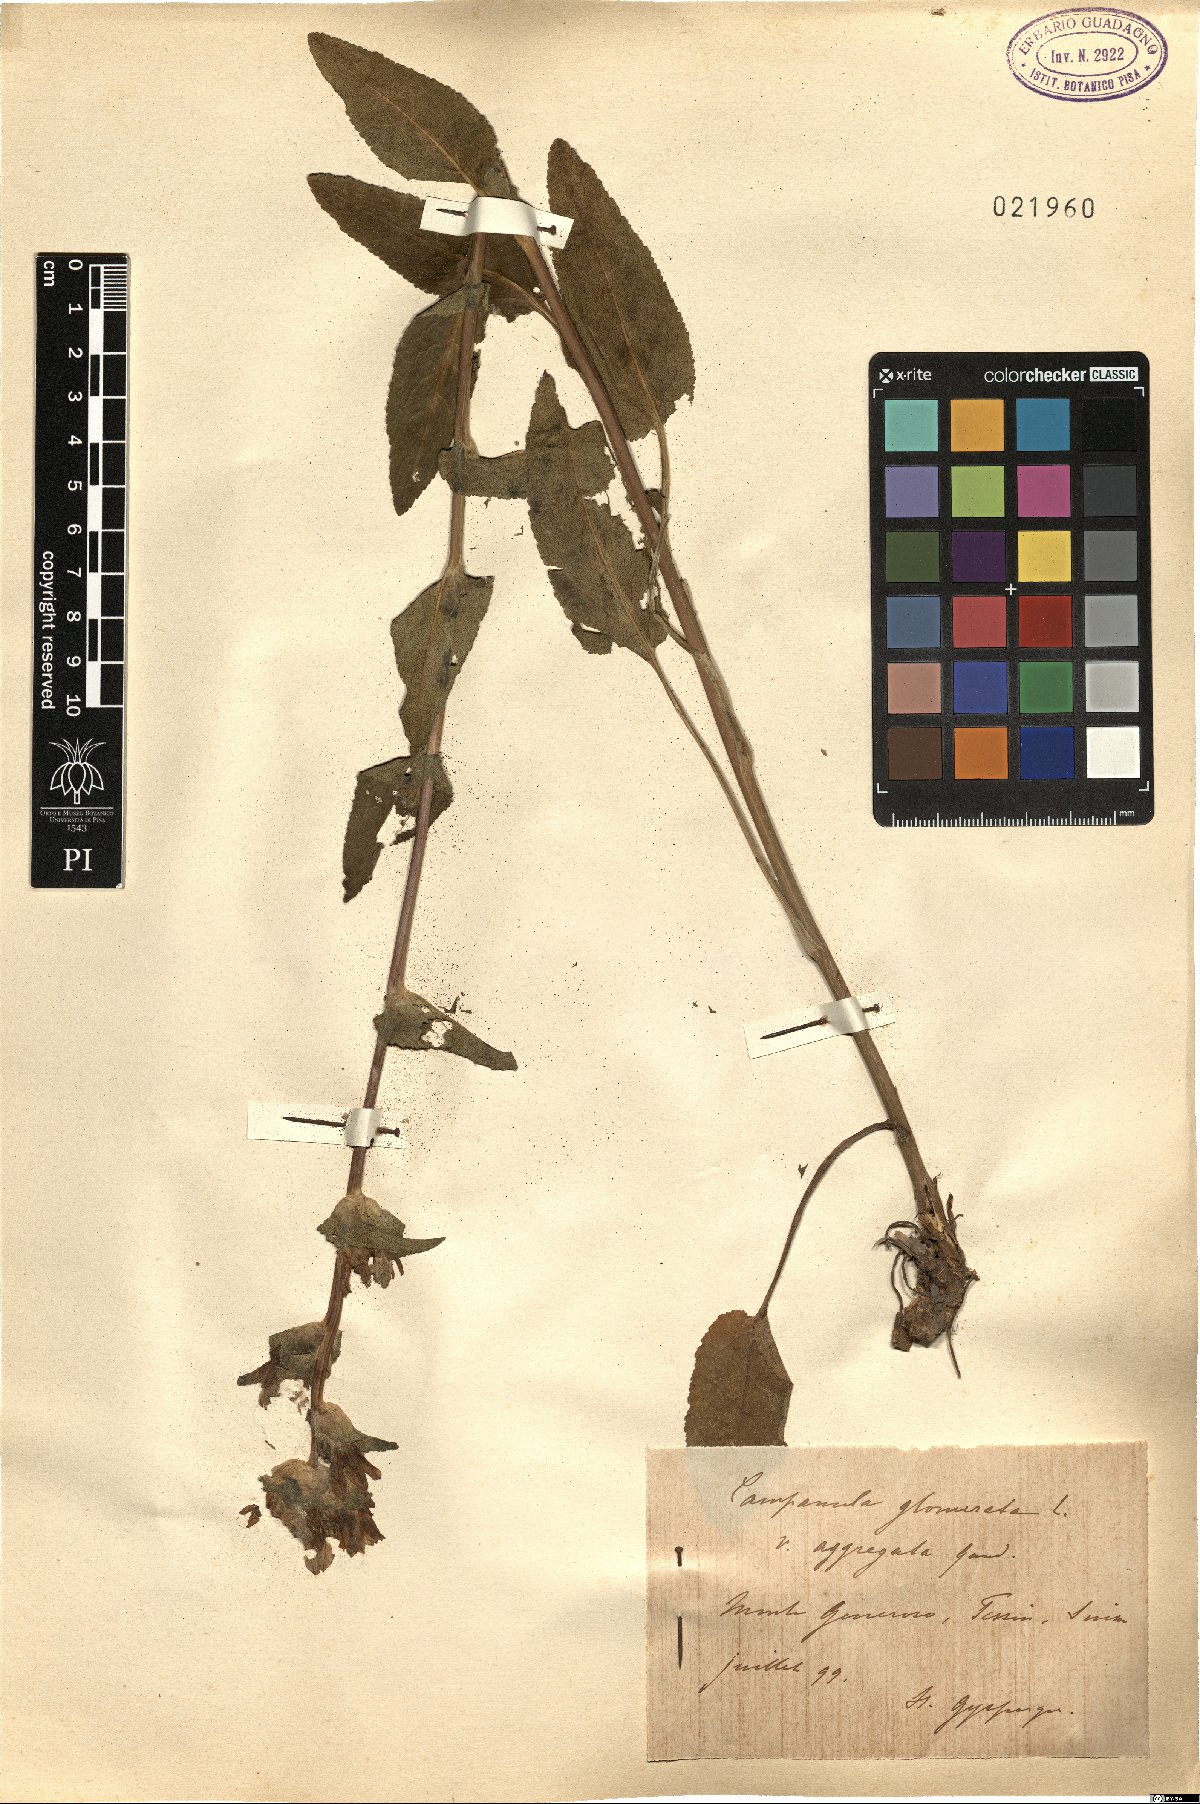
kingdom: Plantae
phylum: Tracheophyta
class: Magnoliopsida
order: Asterales
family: Campanulaceae
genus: Campanula
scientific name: Campanula glomerata
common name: Clustered bellflower
